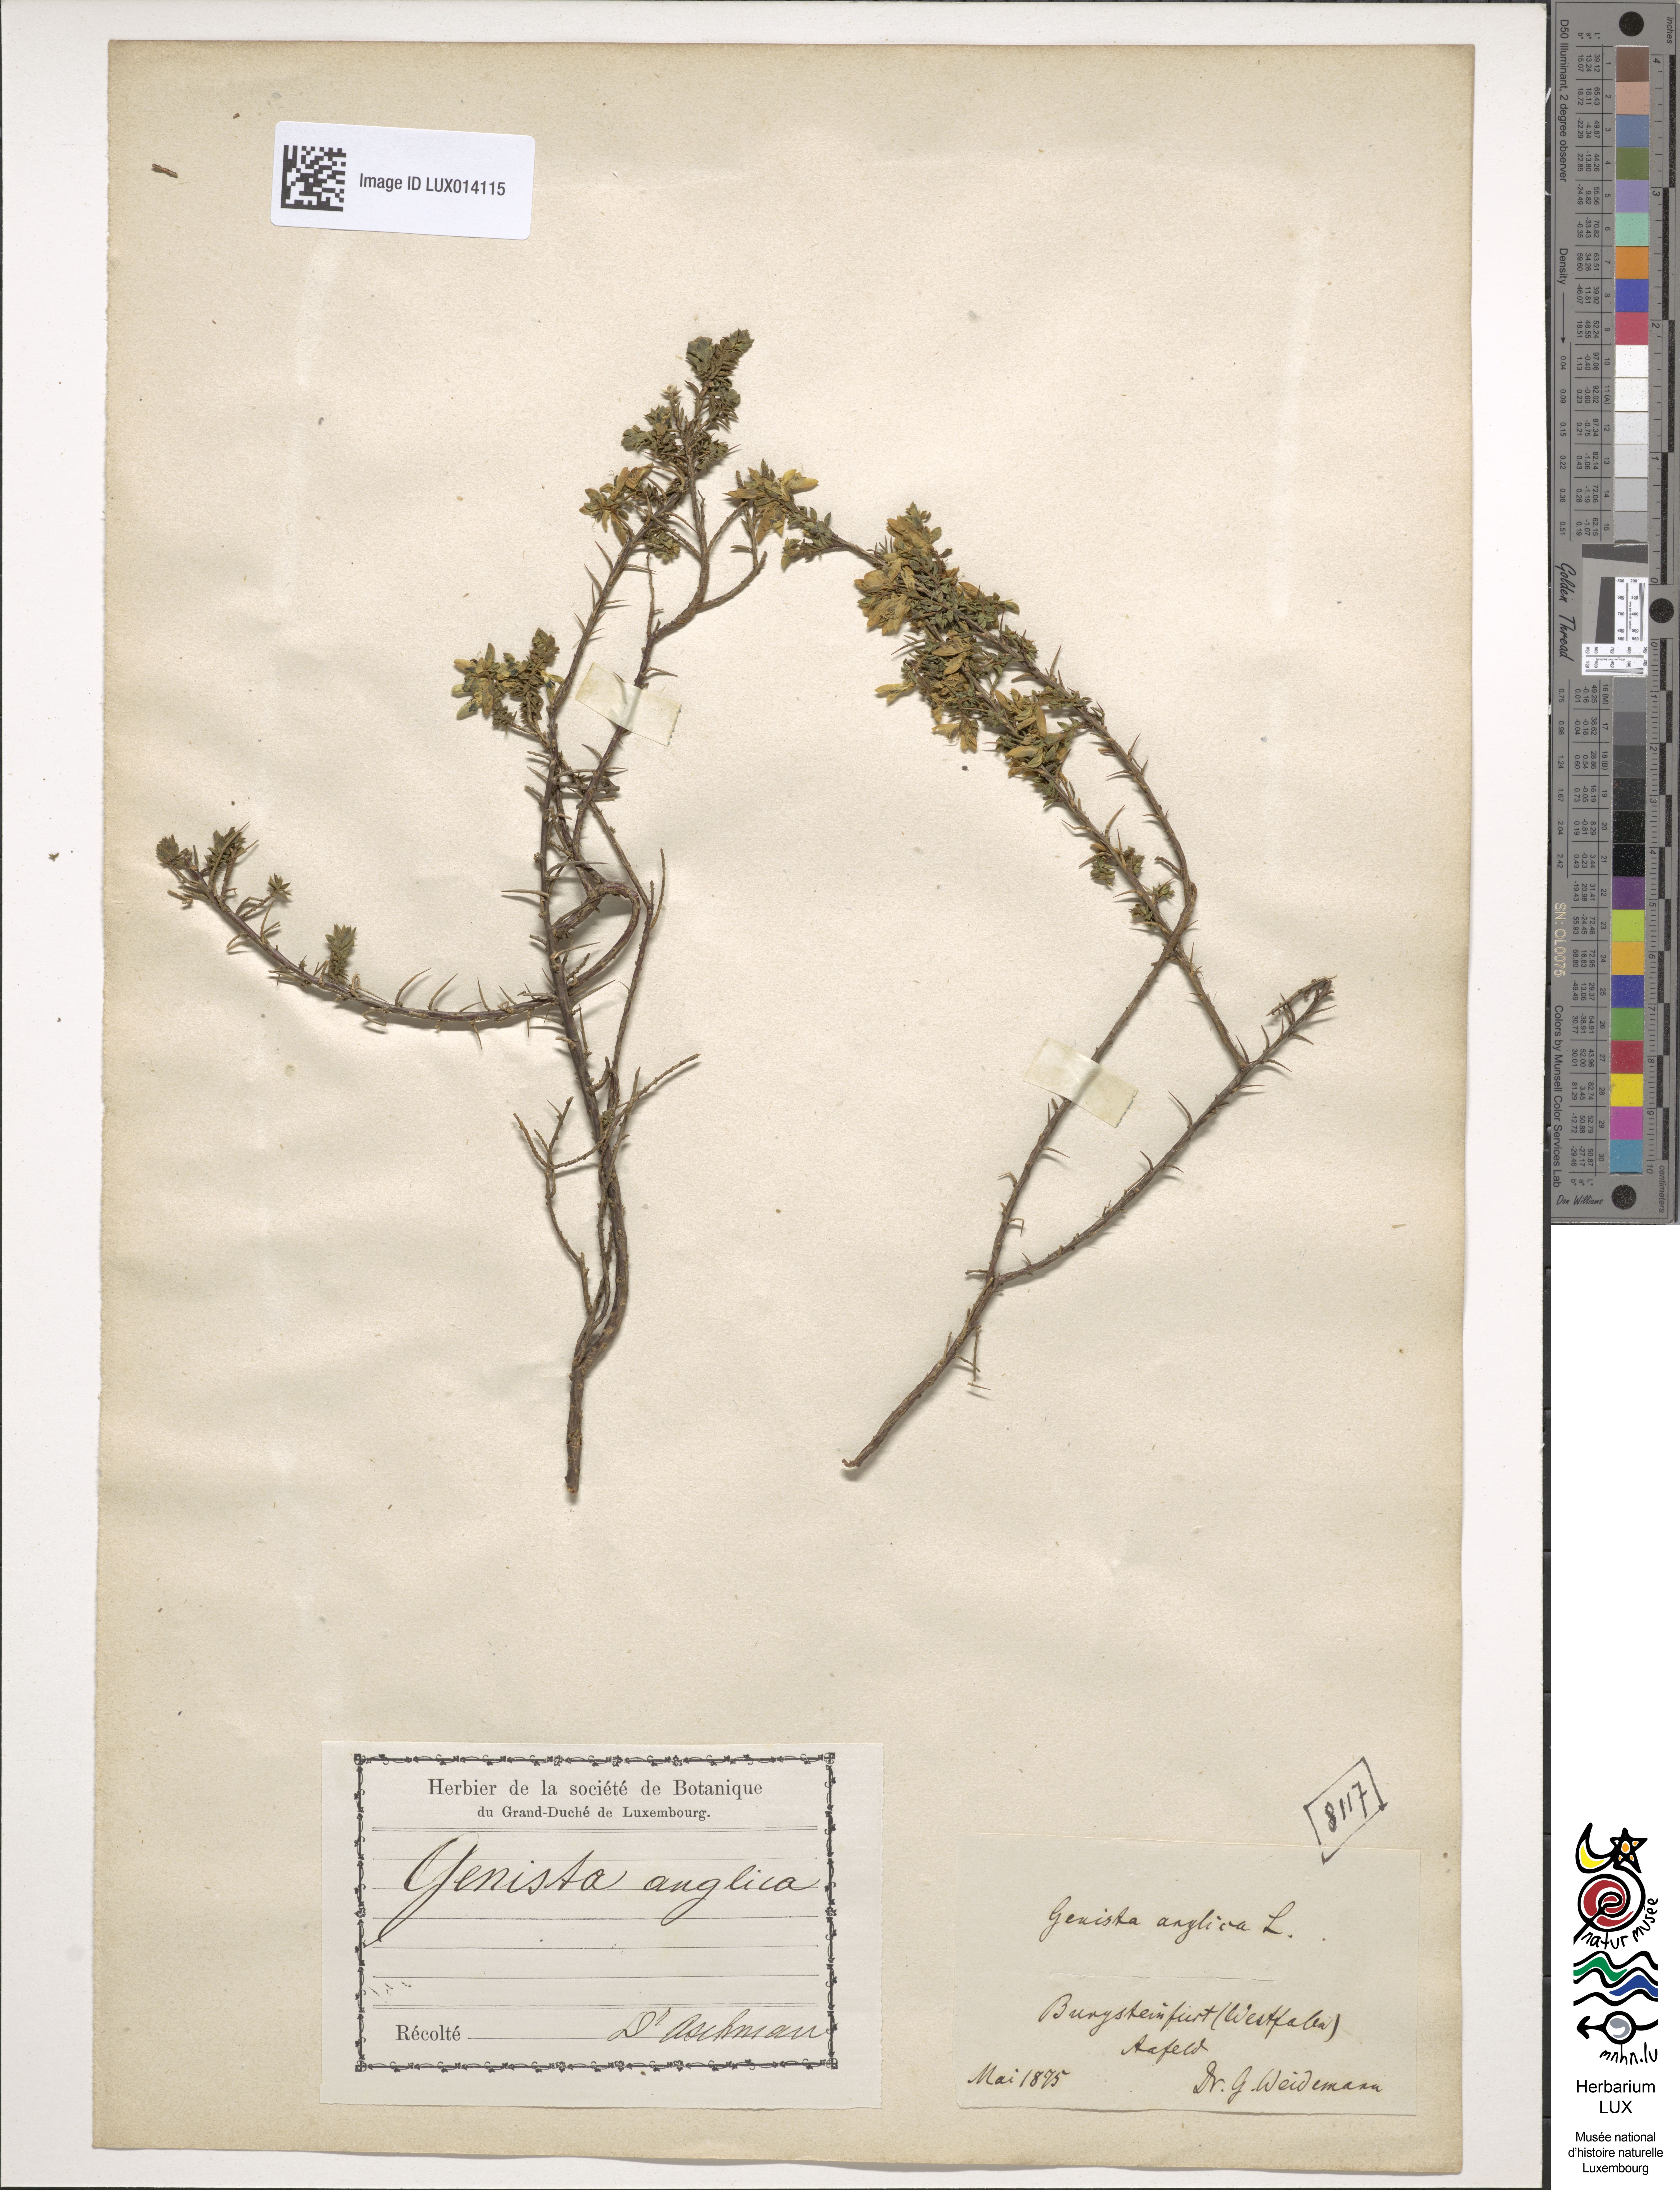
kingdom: Plantae
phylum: Tracheophyta
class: Magnoliopsida
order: Fabales
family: Fabaceae
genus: Genista
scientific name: Genista anglica
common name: Petty whin
